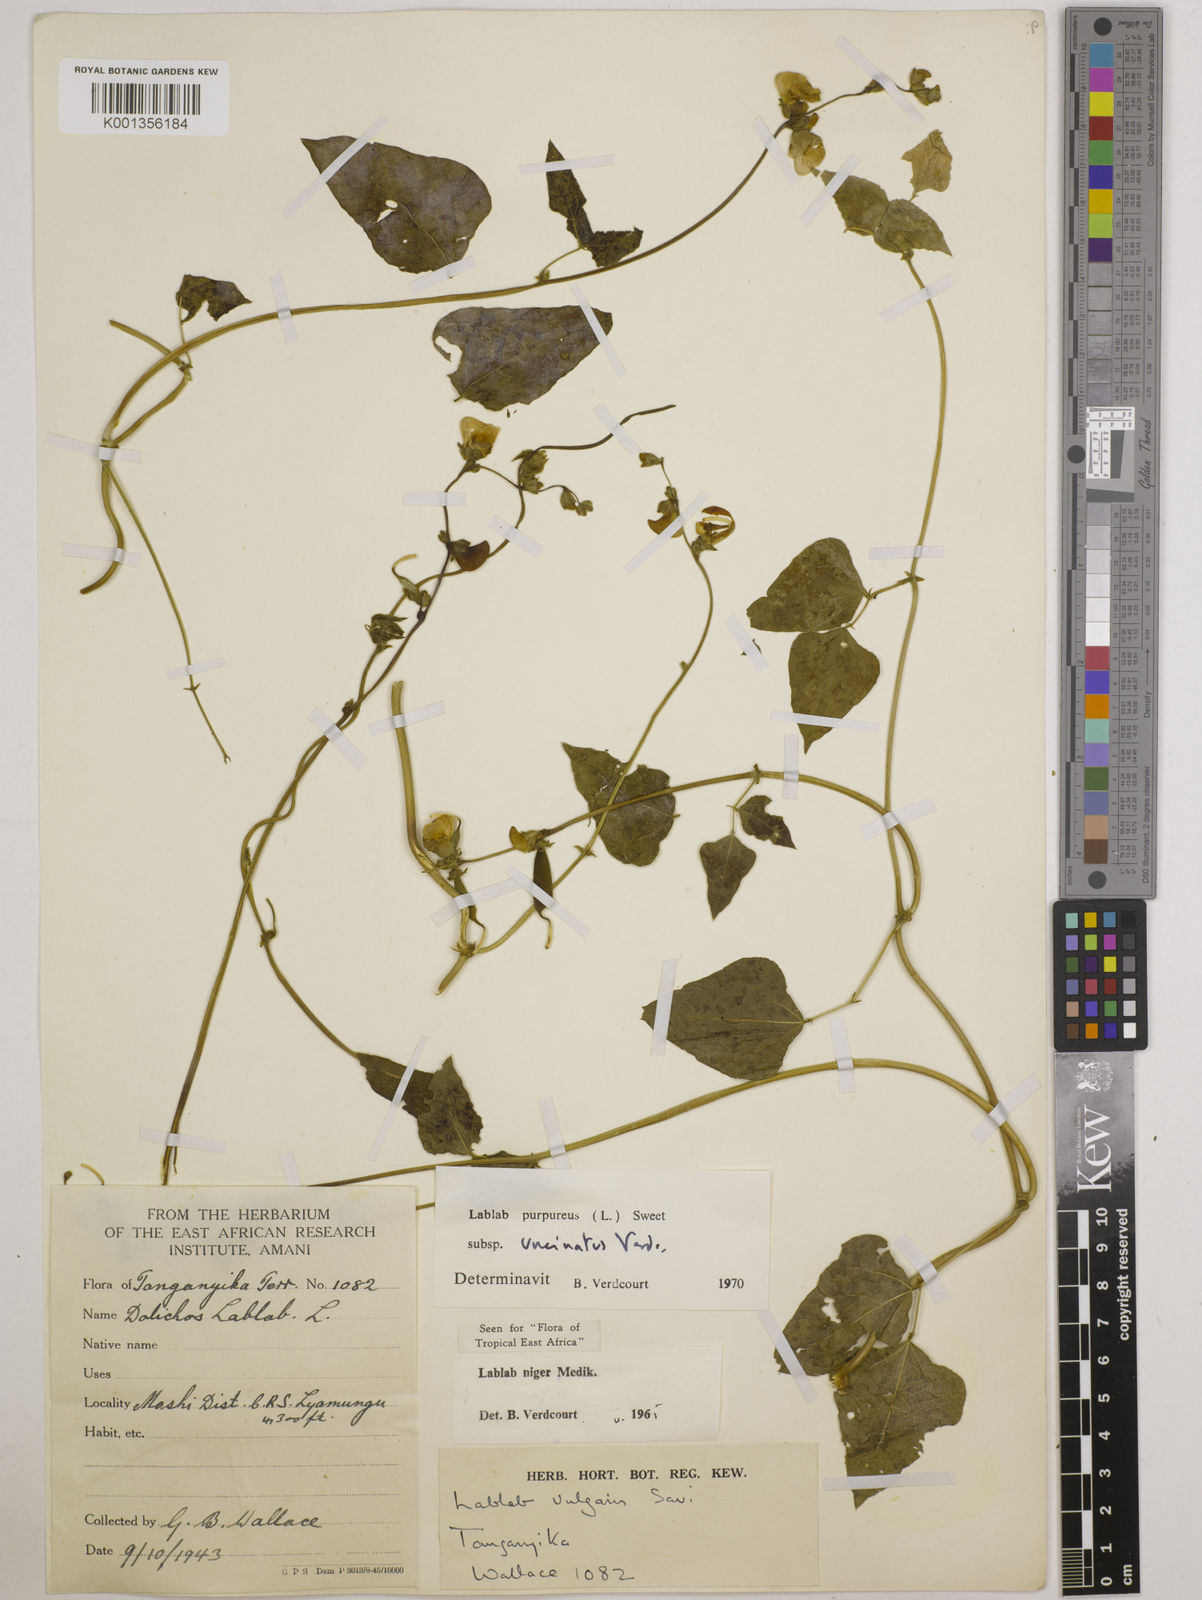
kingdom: Plantae
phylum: Tracheophyta
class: Magnoliopsida
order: Fabales
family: Fabaceae
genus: Lablab
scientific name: Lablab purpureus
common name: Lablab-bean
